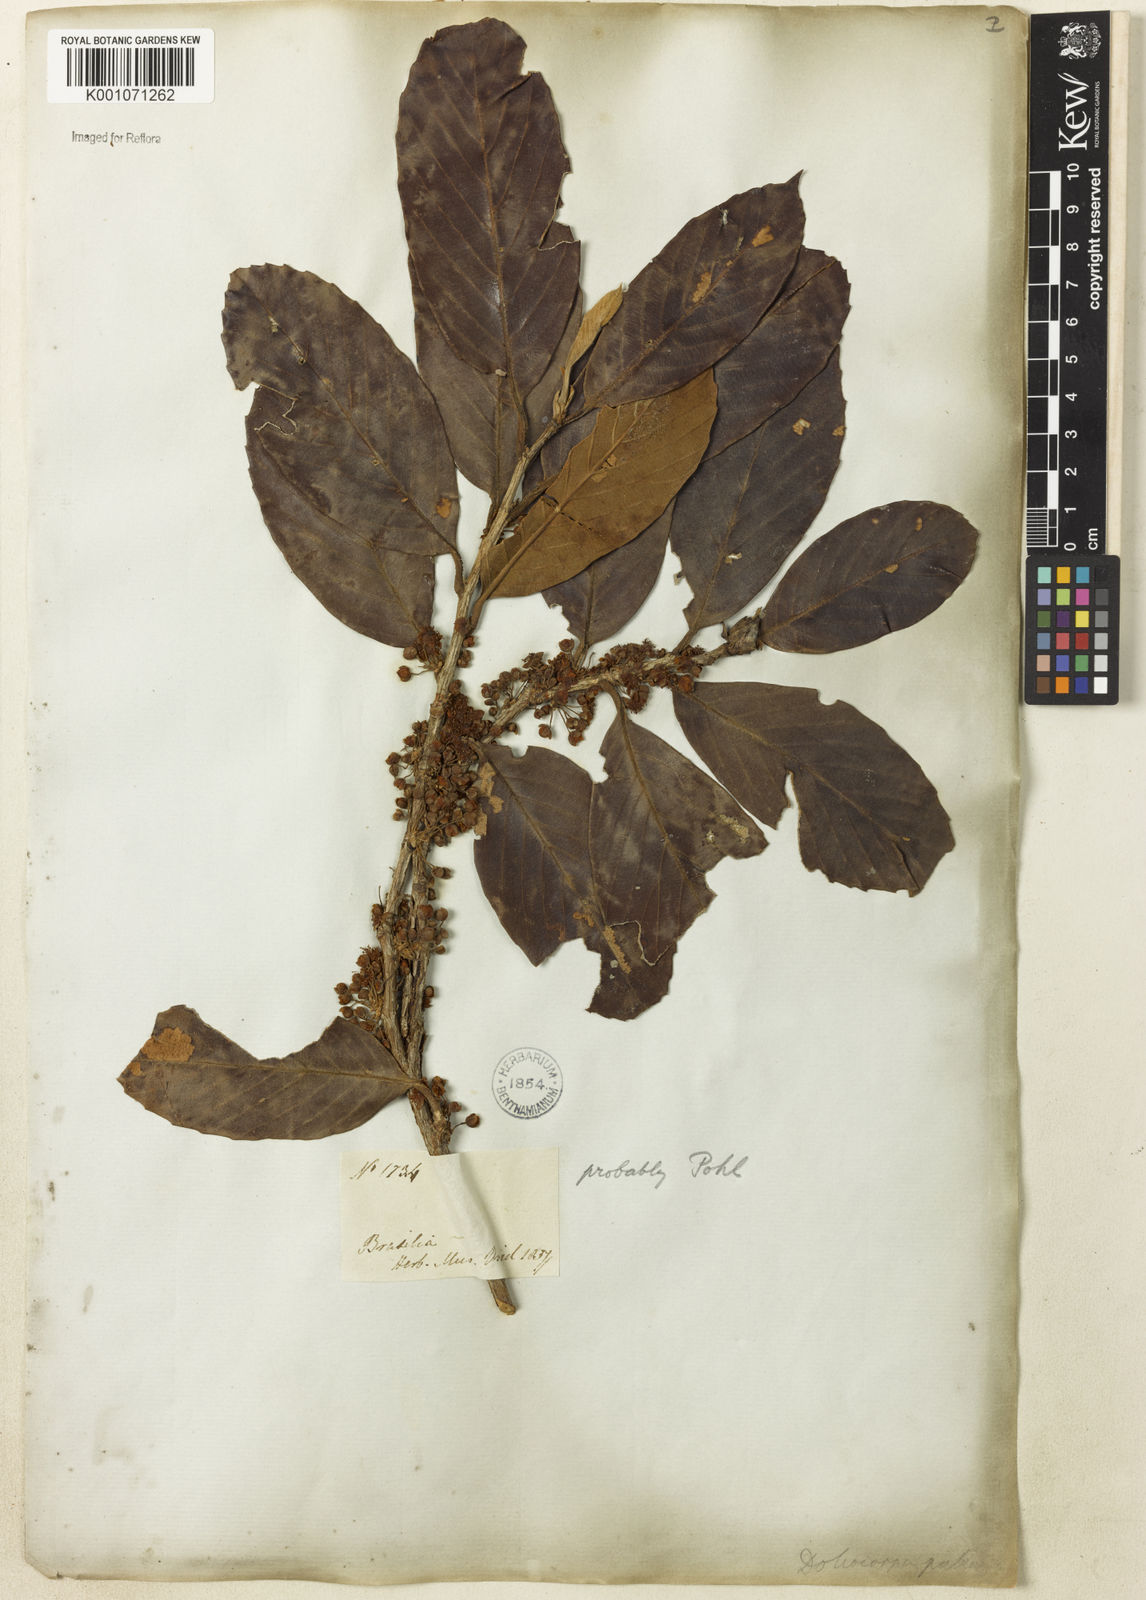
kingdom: Plantae
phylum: Tracheophyta
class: Magnoliopsida
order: Dilleniales
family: Dilleniaceae
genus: Doliocarpus
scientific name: Doliocarpus dentatus
